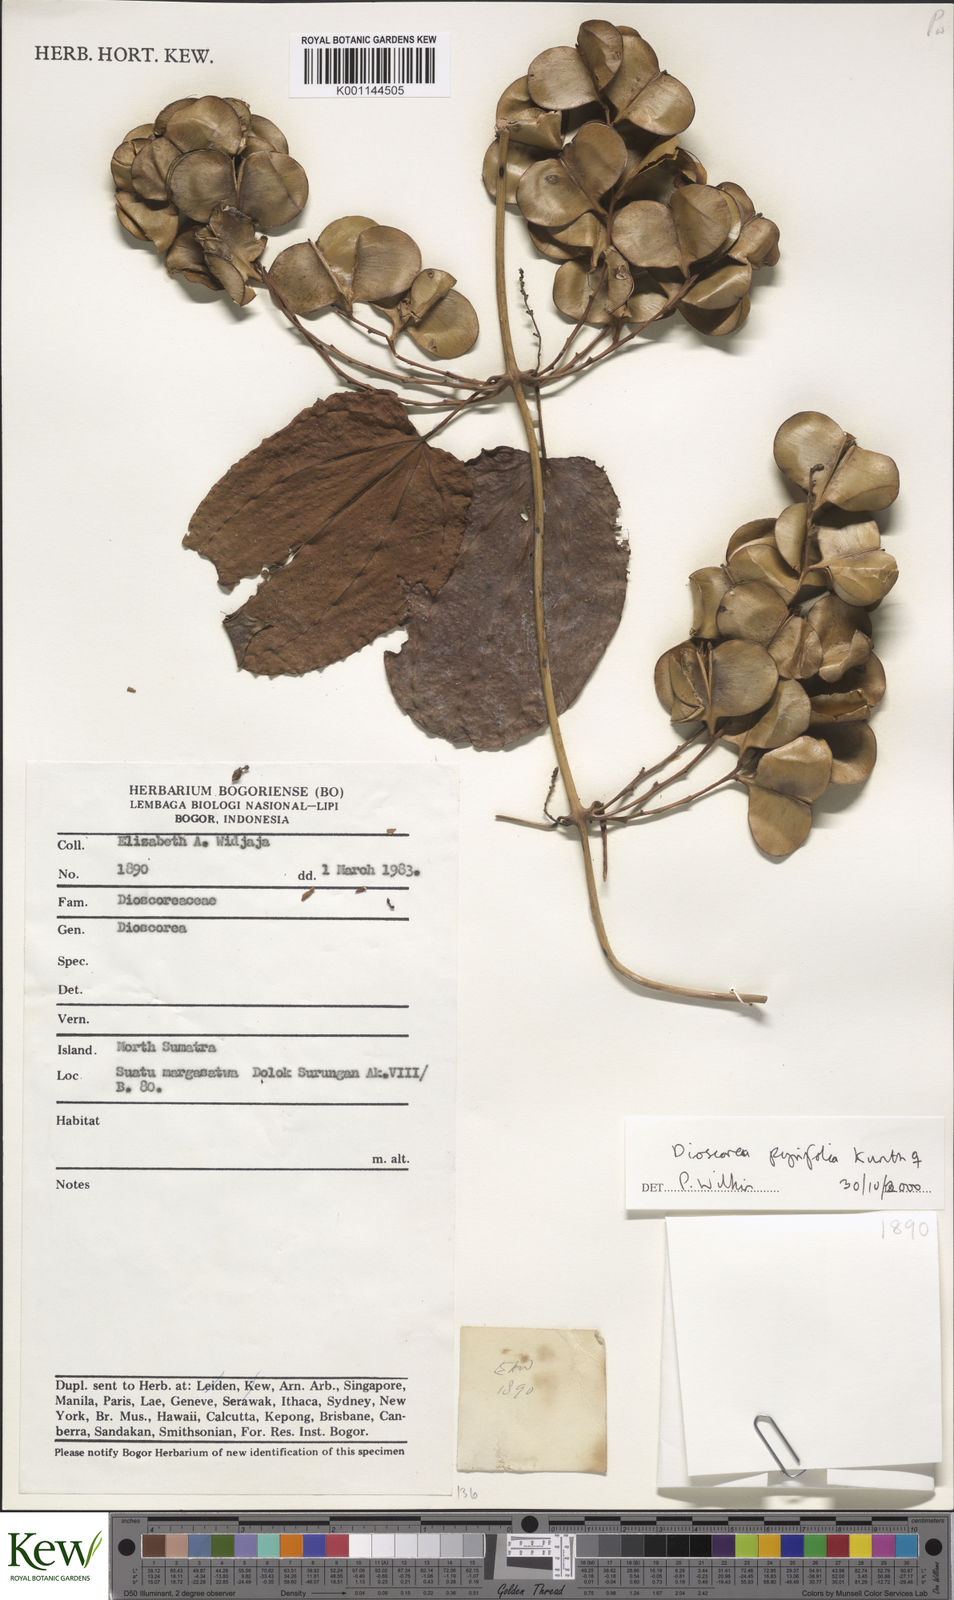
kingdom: Plantae
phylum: Tracheophyta
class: Liliopsida
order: Dioscoreales
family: Dioscoreaceae
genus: Dioscorea
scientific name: Dioscorea pyrifolia
